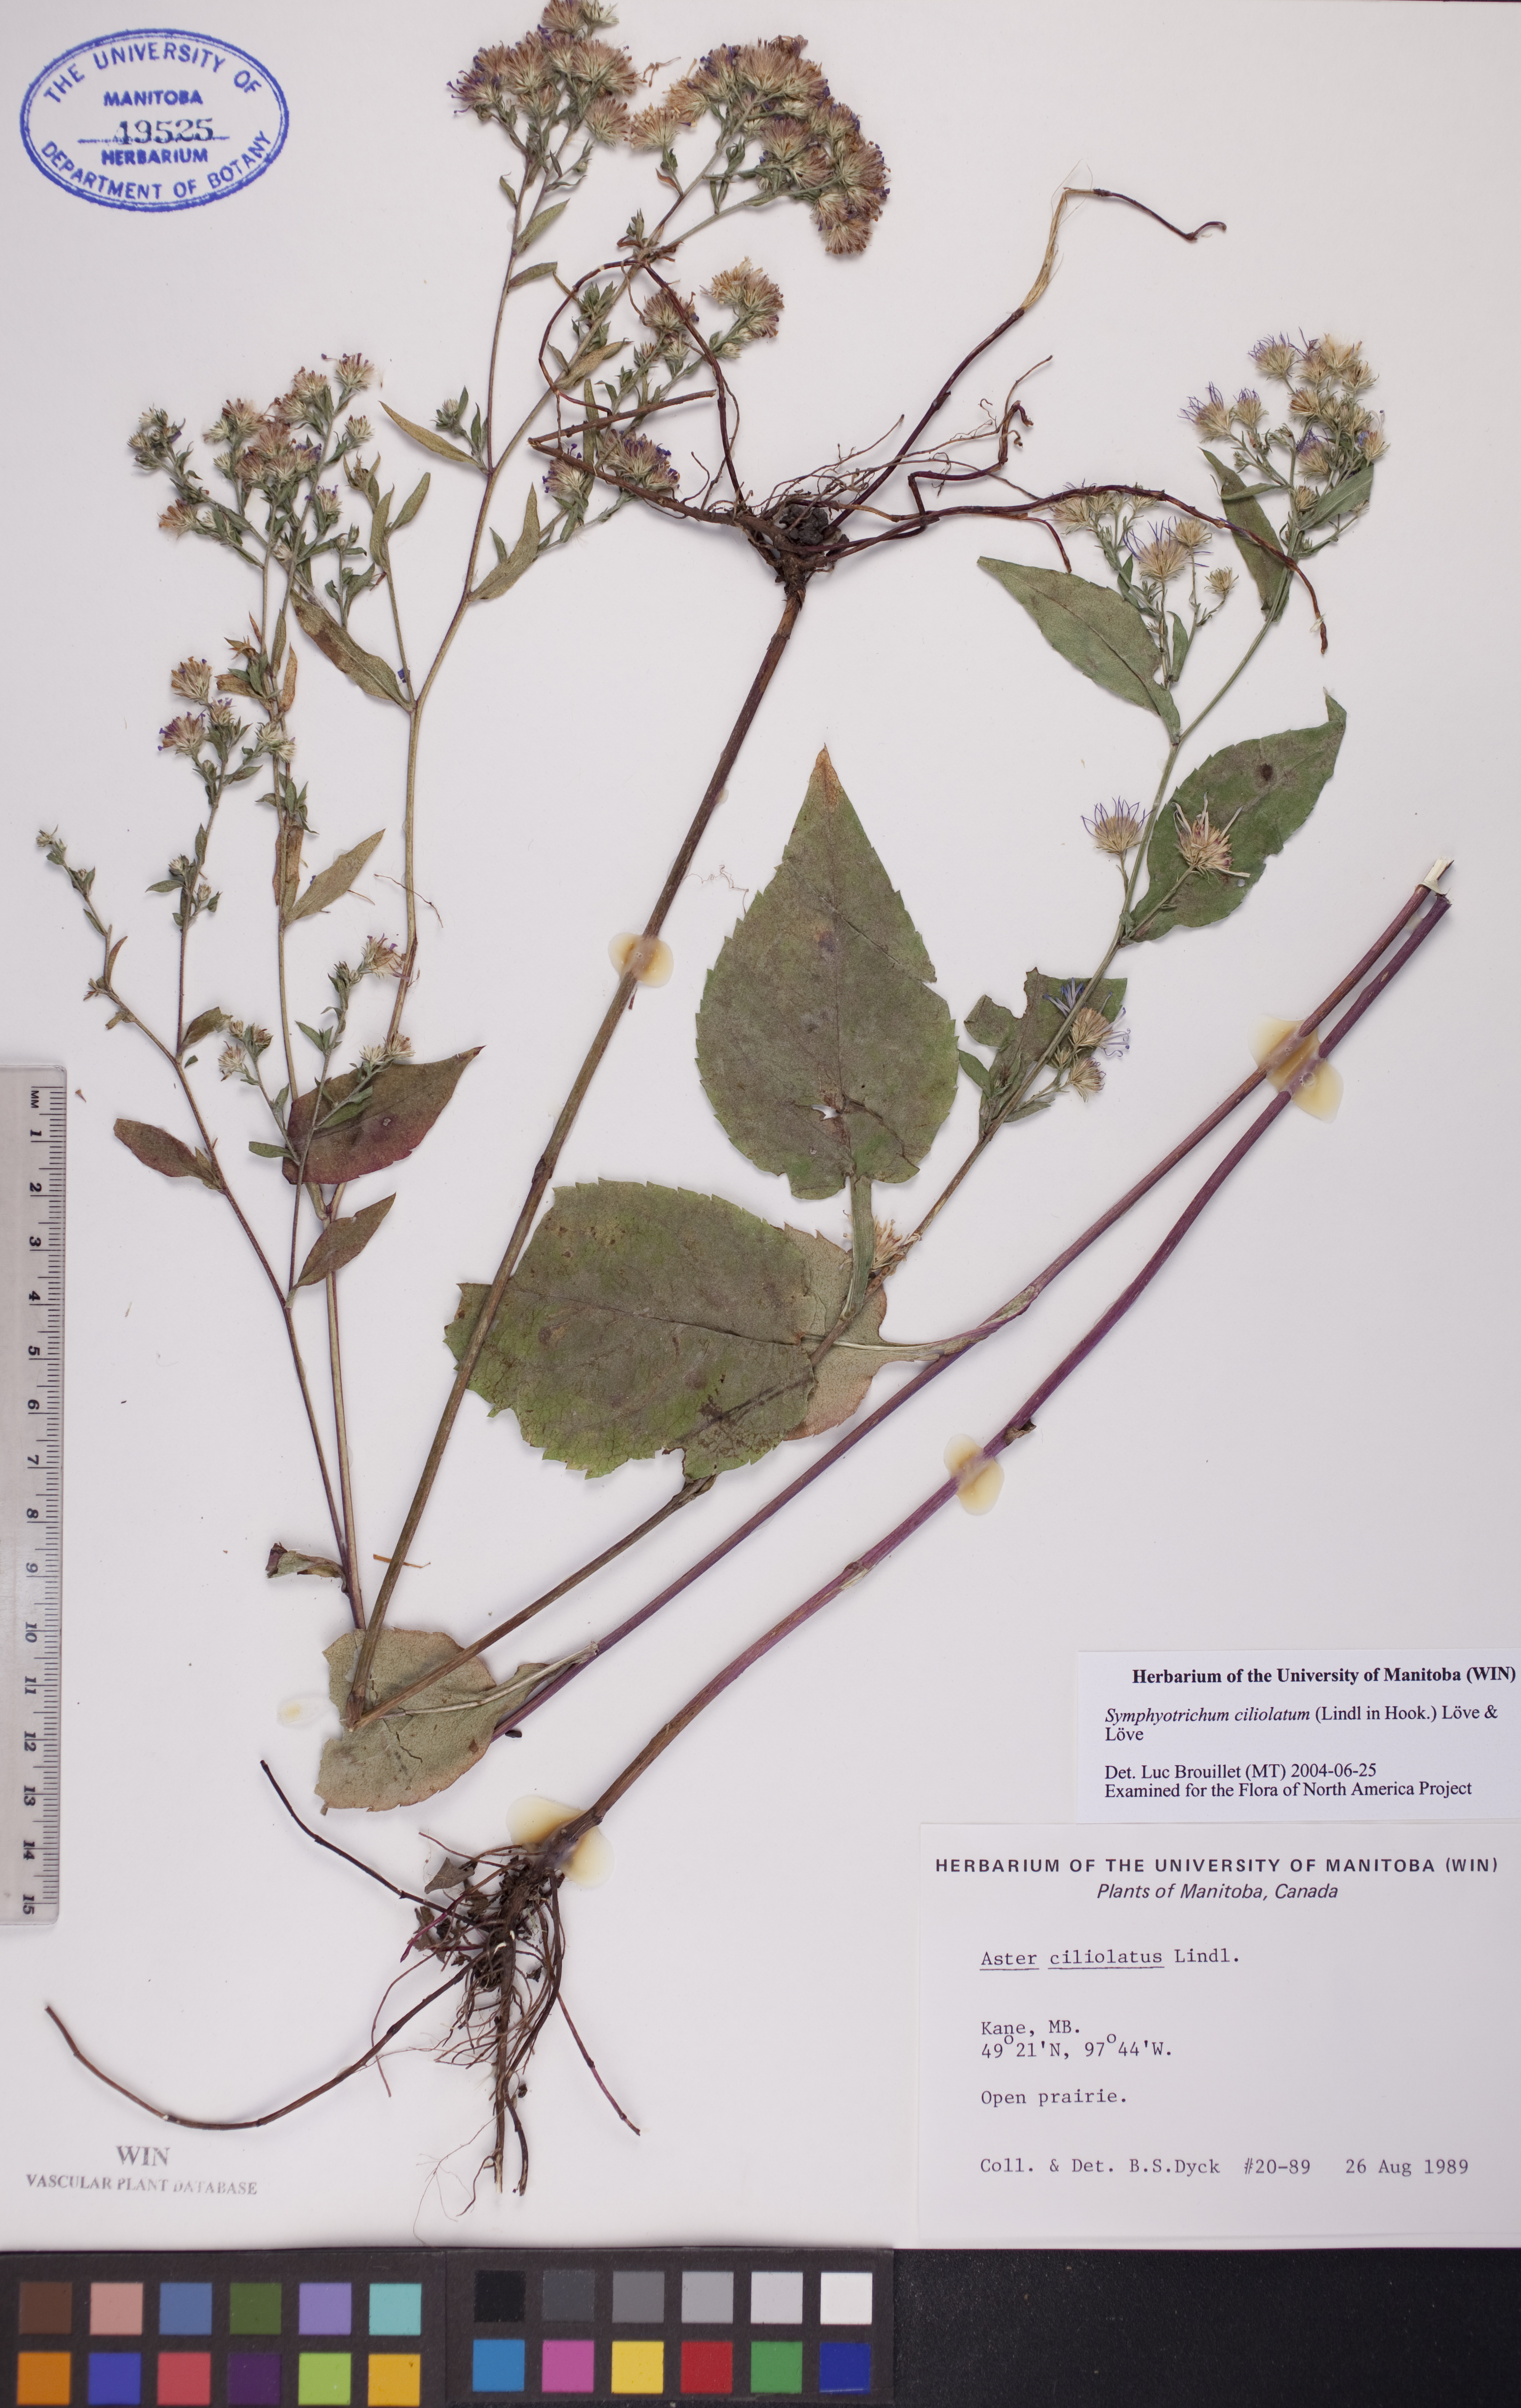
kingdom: Plantae
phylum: Tracheophyta
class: Magnoliopsida
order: Asterales
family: Asteraceae
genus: Symphyotrichum
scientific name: Symphyotrichum ciliolatum
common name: Fringed blue aster
